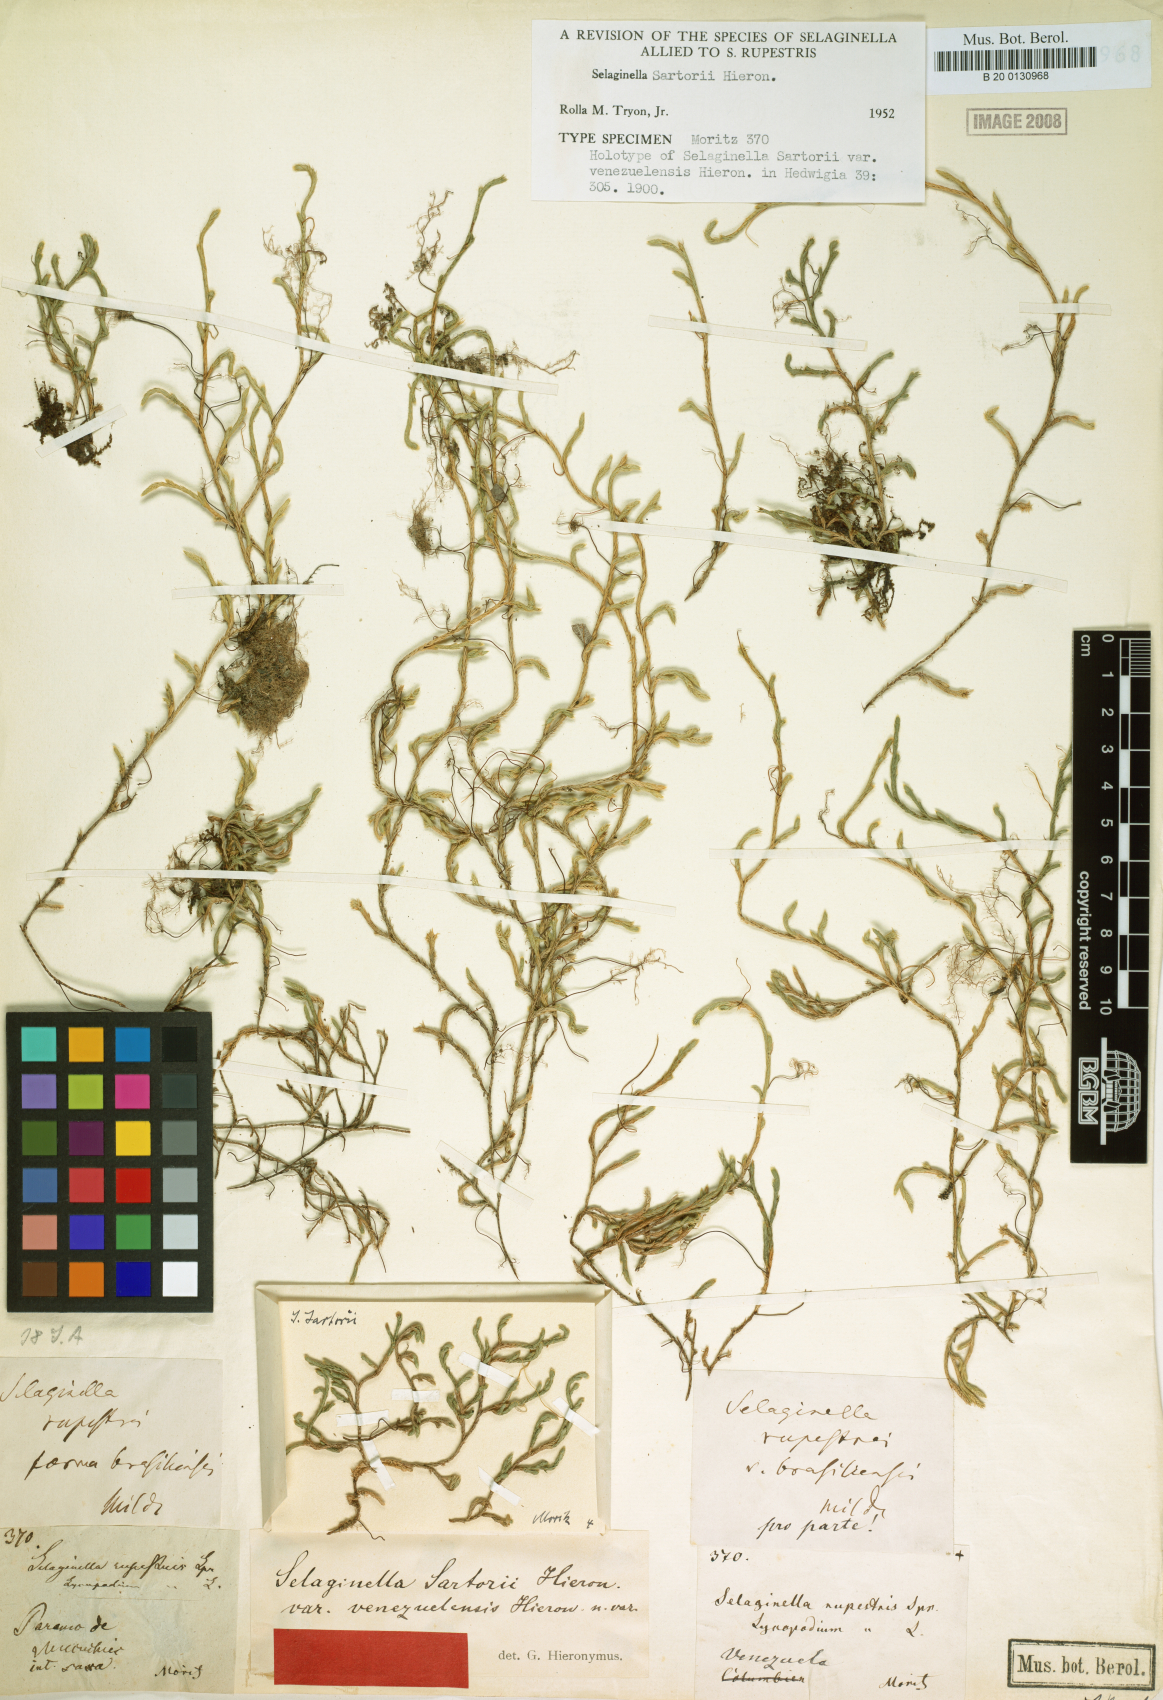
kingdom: Plantae
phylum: Tracheophyta
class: Lycopodiopsida
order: Selaginellales
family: Selaginellaceae
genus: Selaginella
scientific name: Selaginella sartorii
